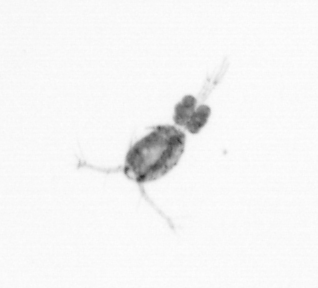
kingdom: Animalia
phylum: Arthropoda
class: Copepoda
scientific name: Copepoda
